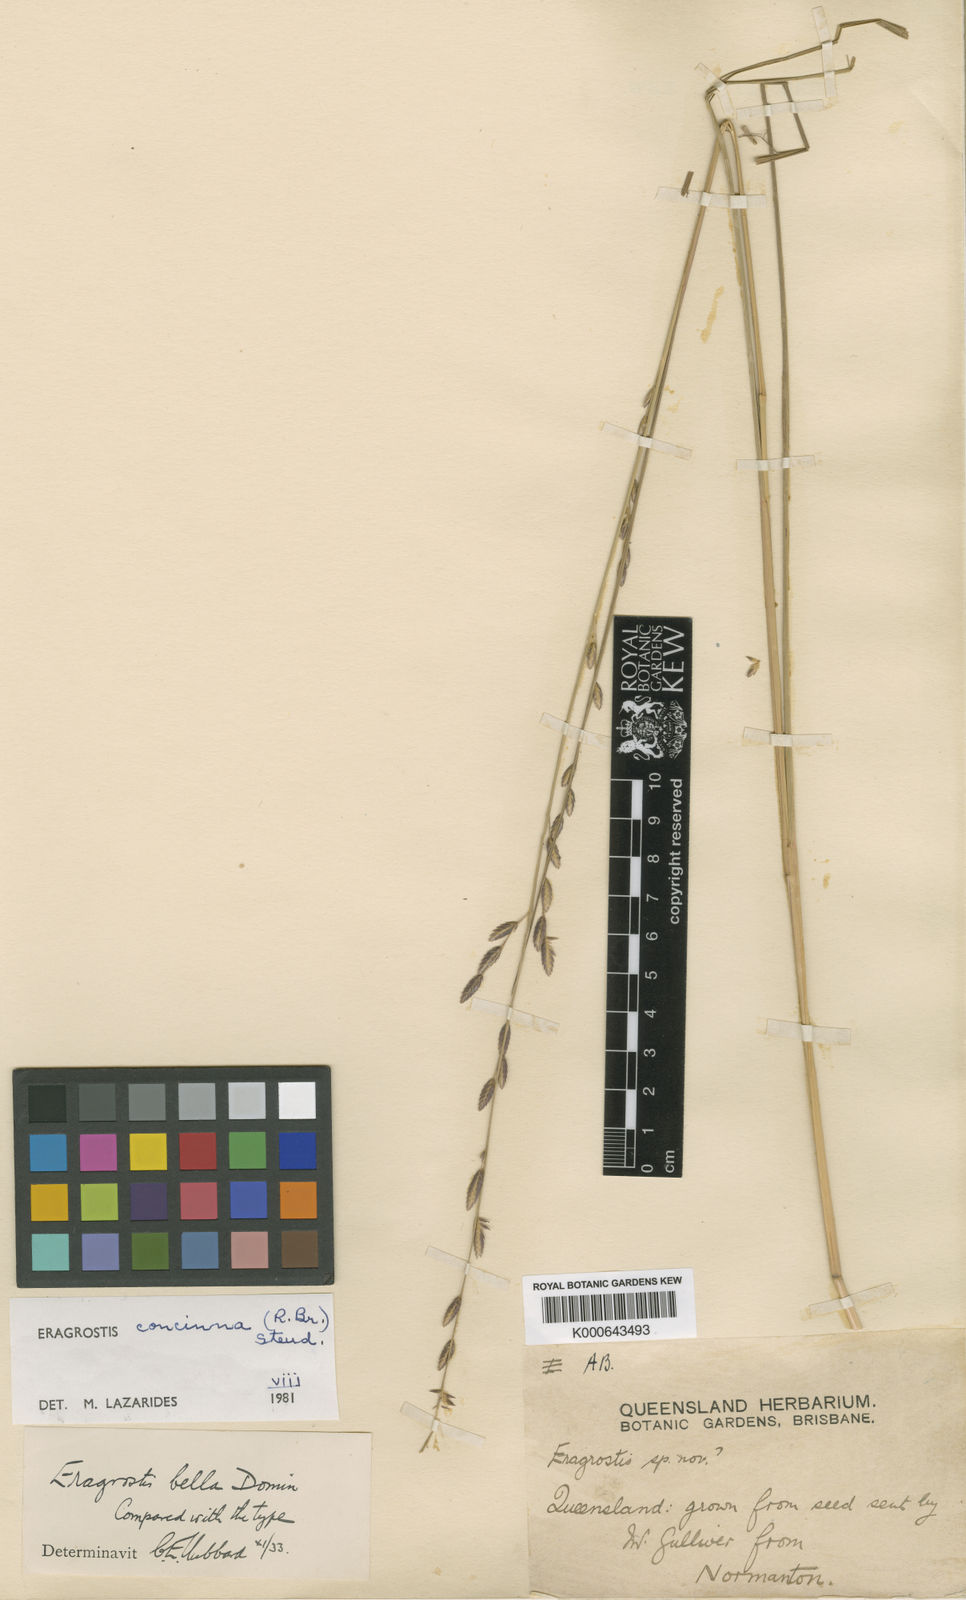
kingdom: Plantae
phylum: Tracheophyta
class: Liliopsida
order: Poales
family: Poaceae
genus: Eragrostis
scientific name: Eragrostis concinna
